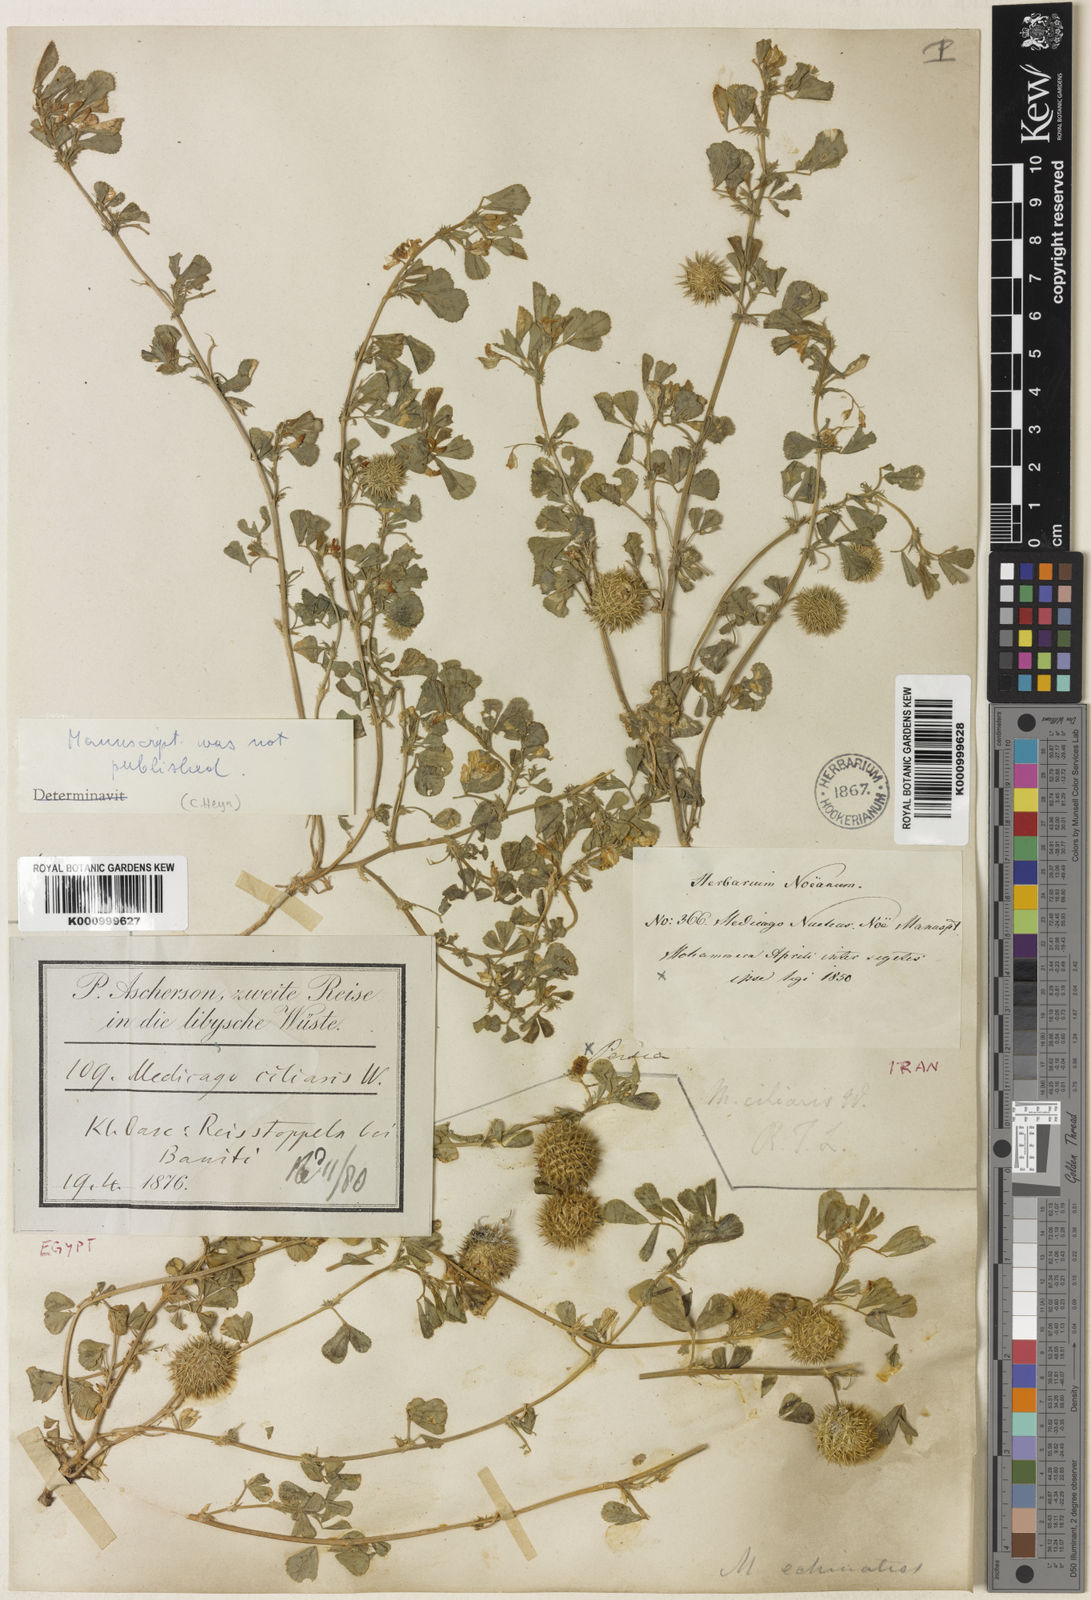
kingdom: Plantae
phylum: Tracheophyta
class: Magnoliopsida
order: Fabales
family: Fabaceae
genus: Medicago
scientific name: Medicago
